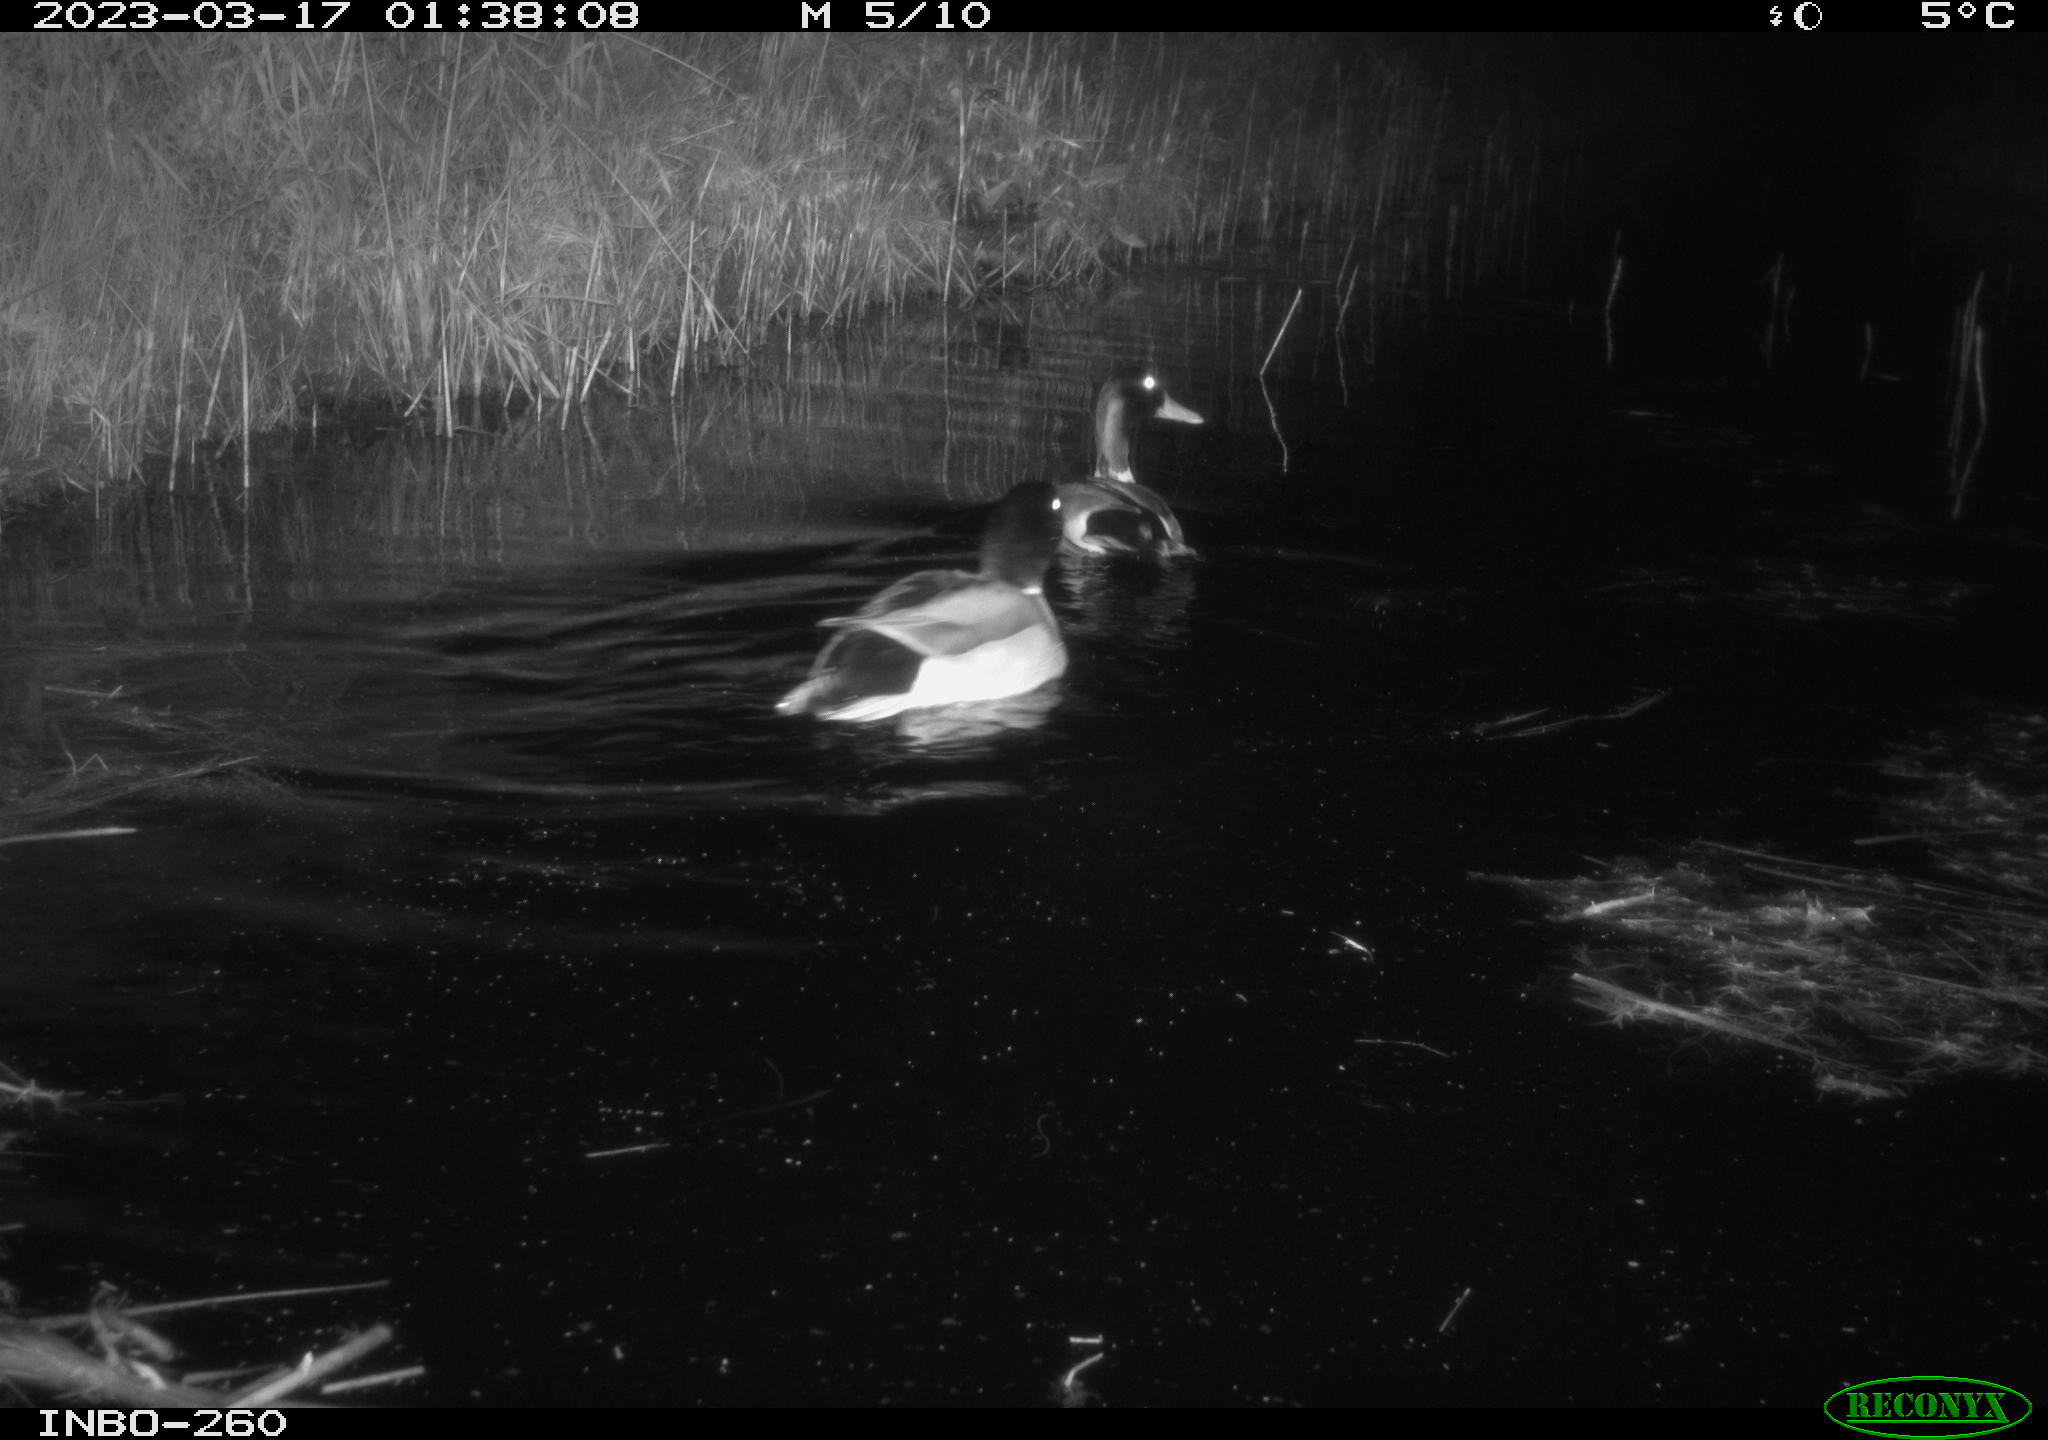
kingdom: Animalia
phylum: Chordata
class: Aves
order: Anseriformes
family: Anatidae
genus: Anas
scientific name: Anas
